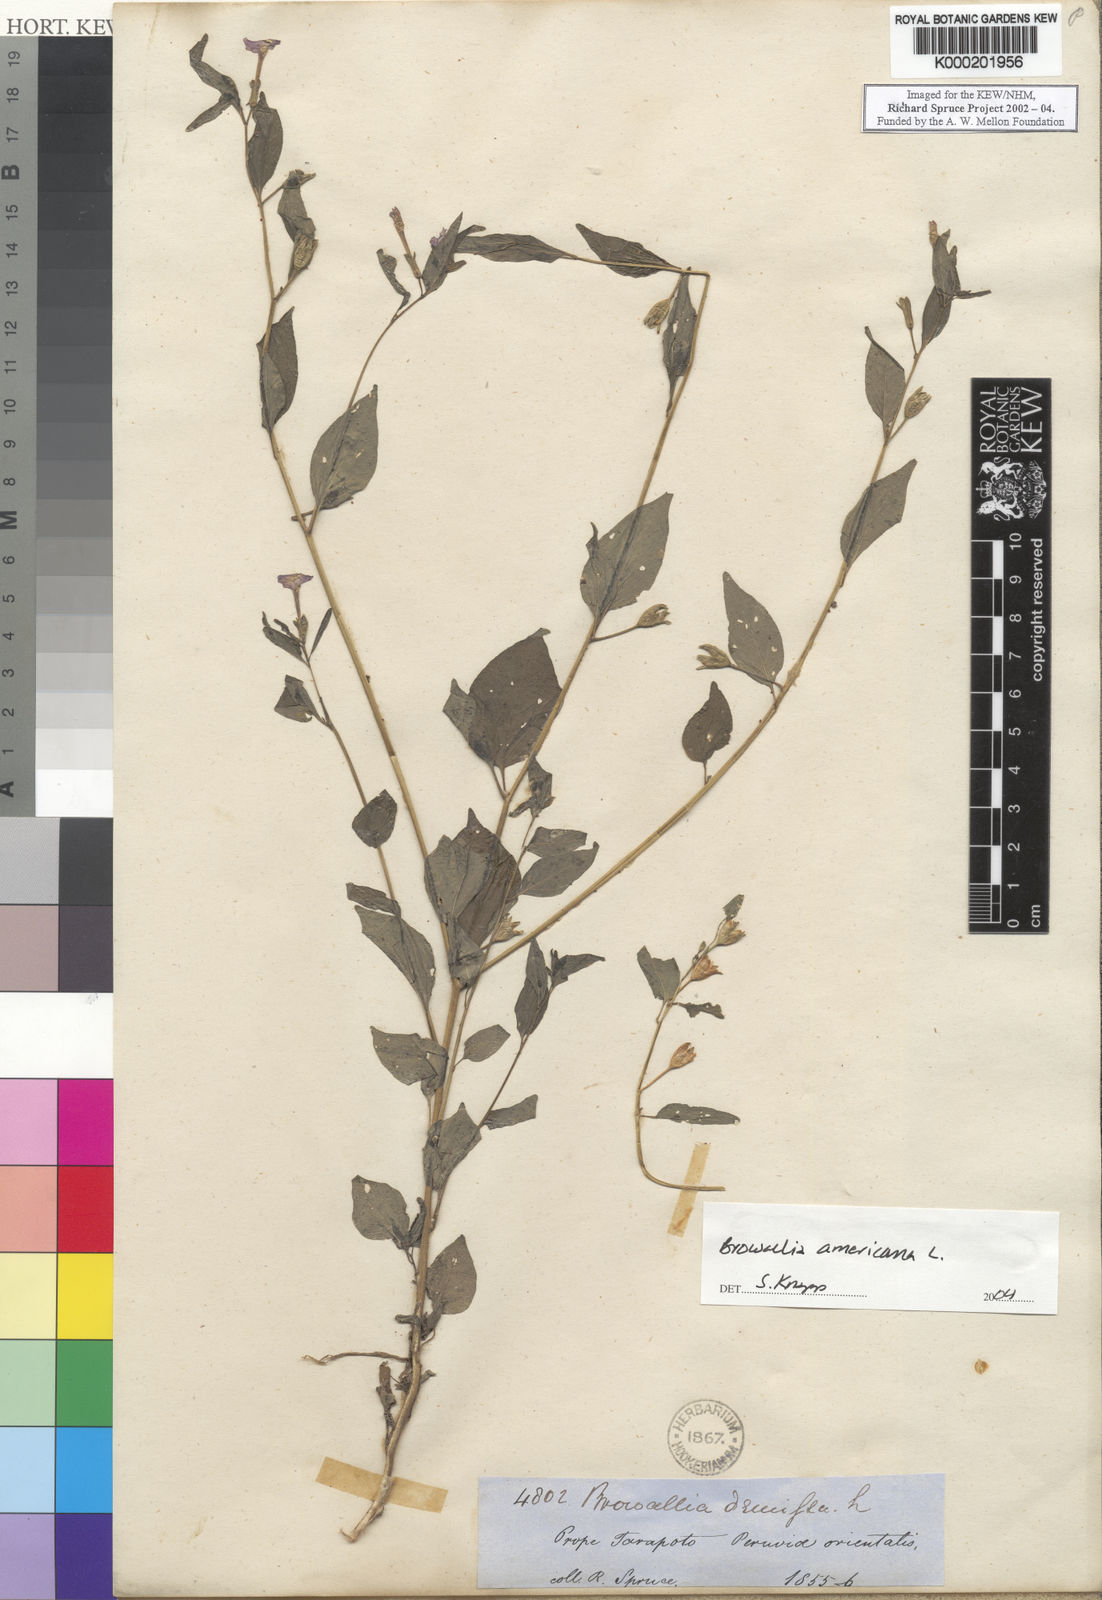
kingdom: Plantae
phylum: Tracheophyta
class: Magnoliopsida
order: Solanales
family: Solanaceae
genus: Browallia
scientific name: Browallia americana
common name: Jamaican forget-me-not
